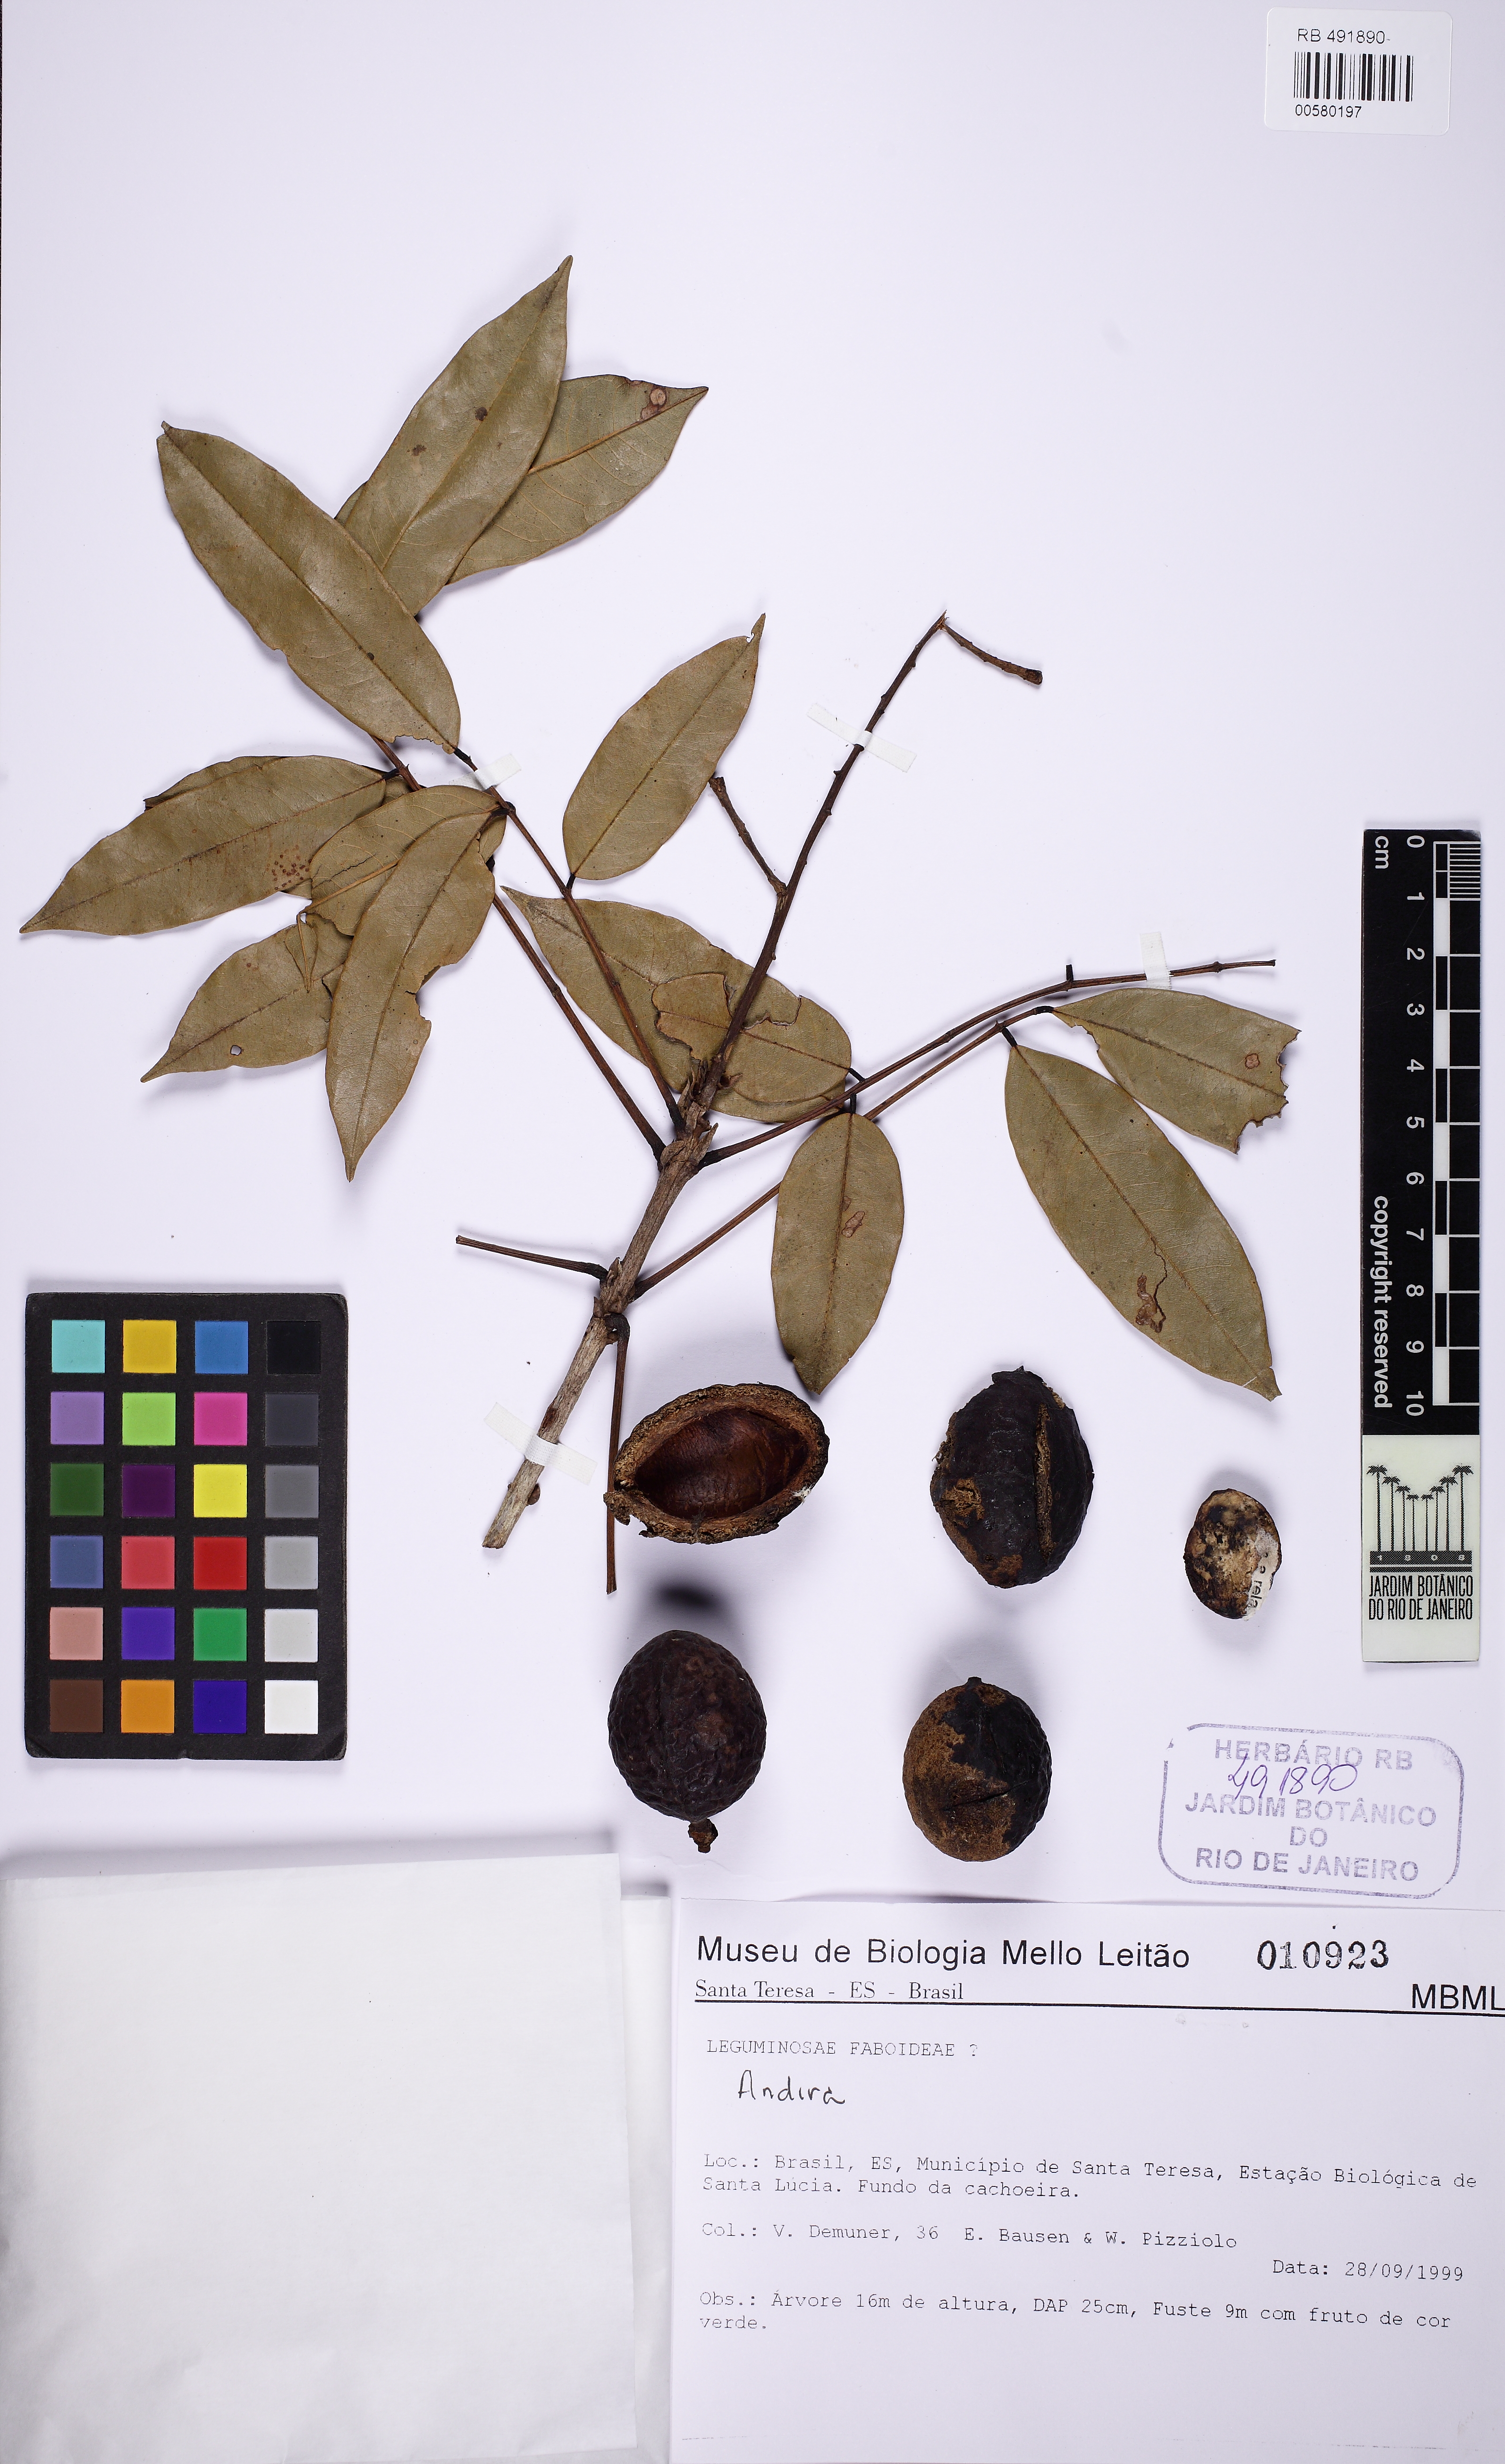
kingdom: Plantae
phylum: Tracheophyta
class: Magnoliopsida
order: Fabales
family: Fabaceae
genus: Andira
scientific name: Andira
